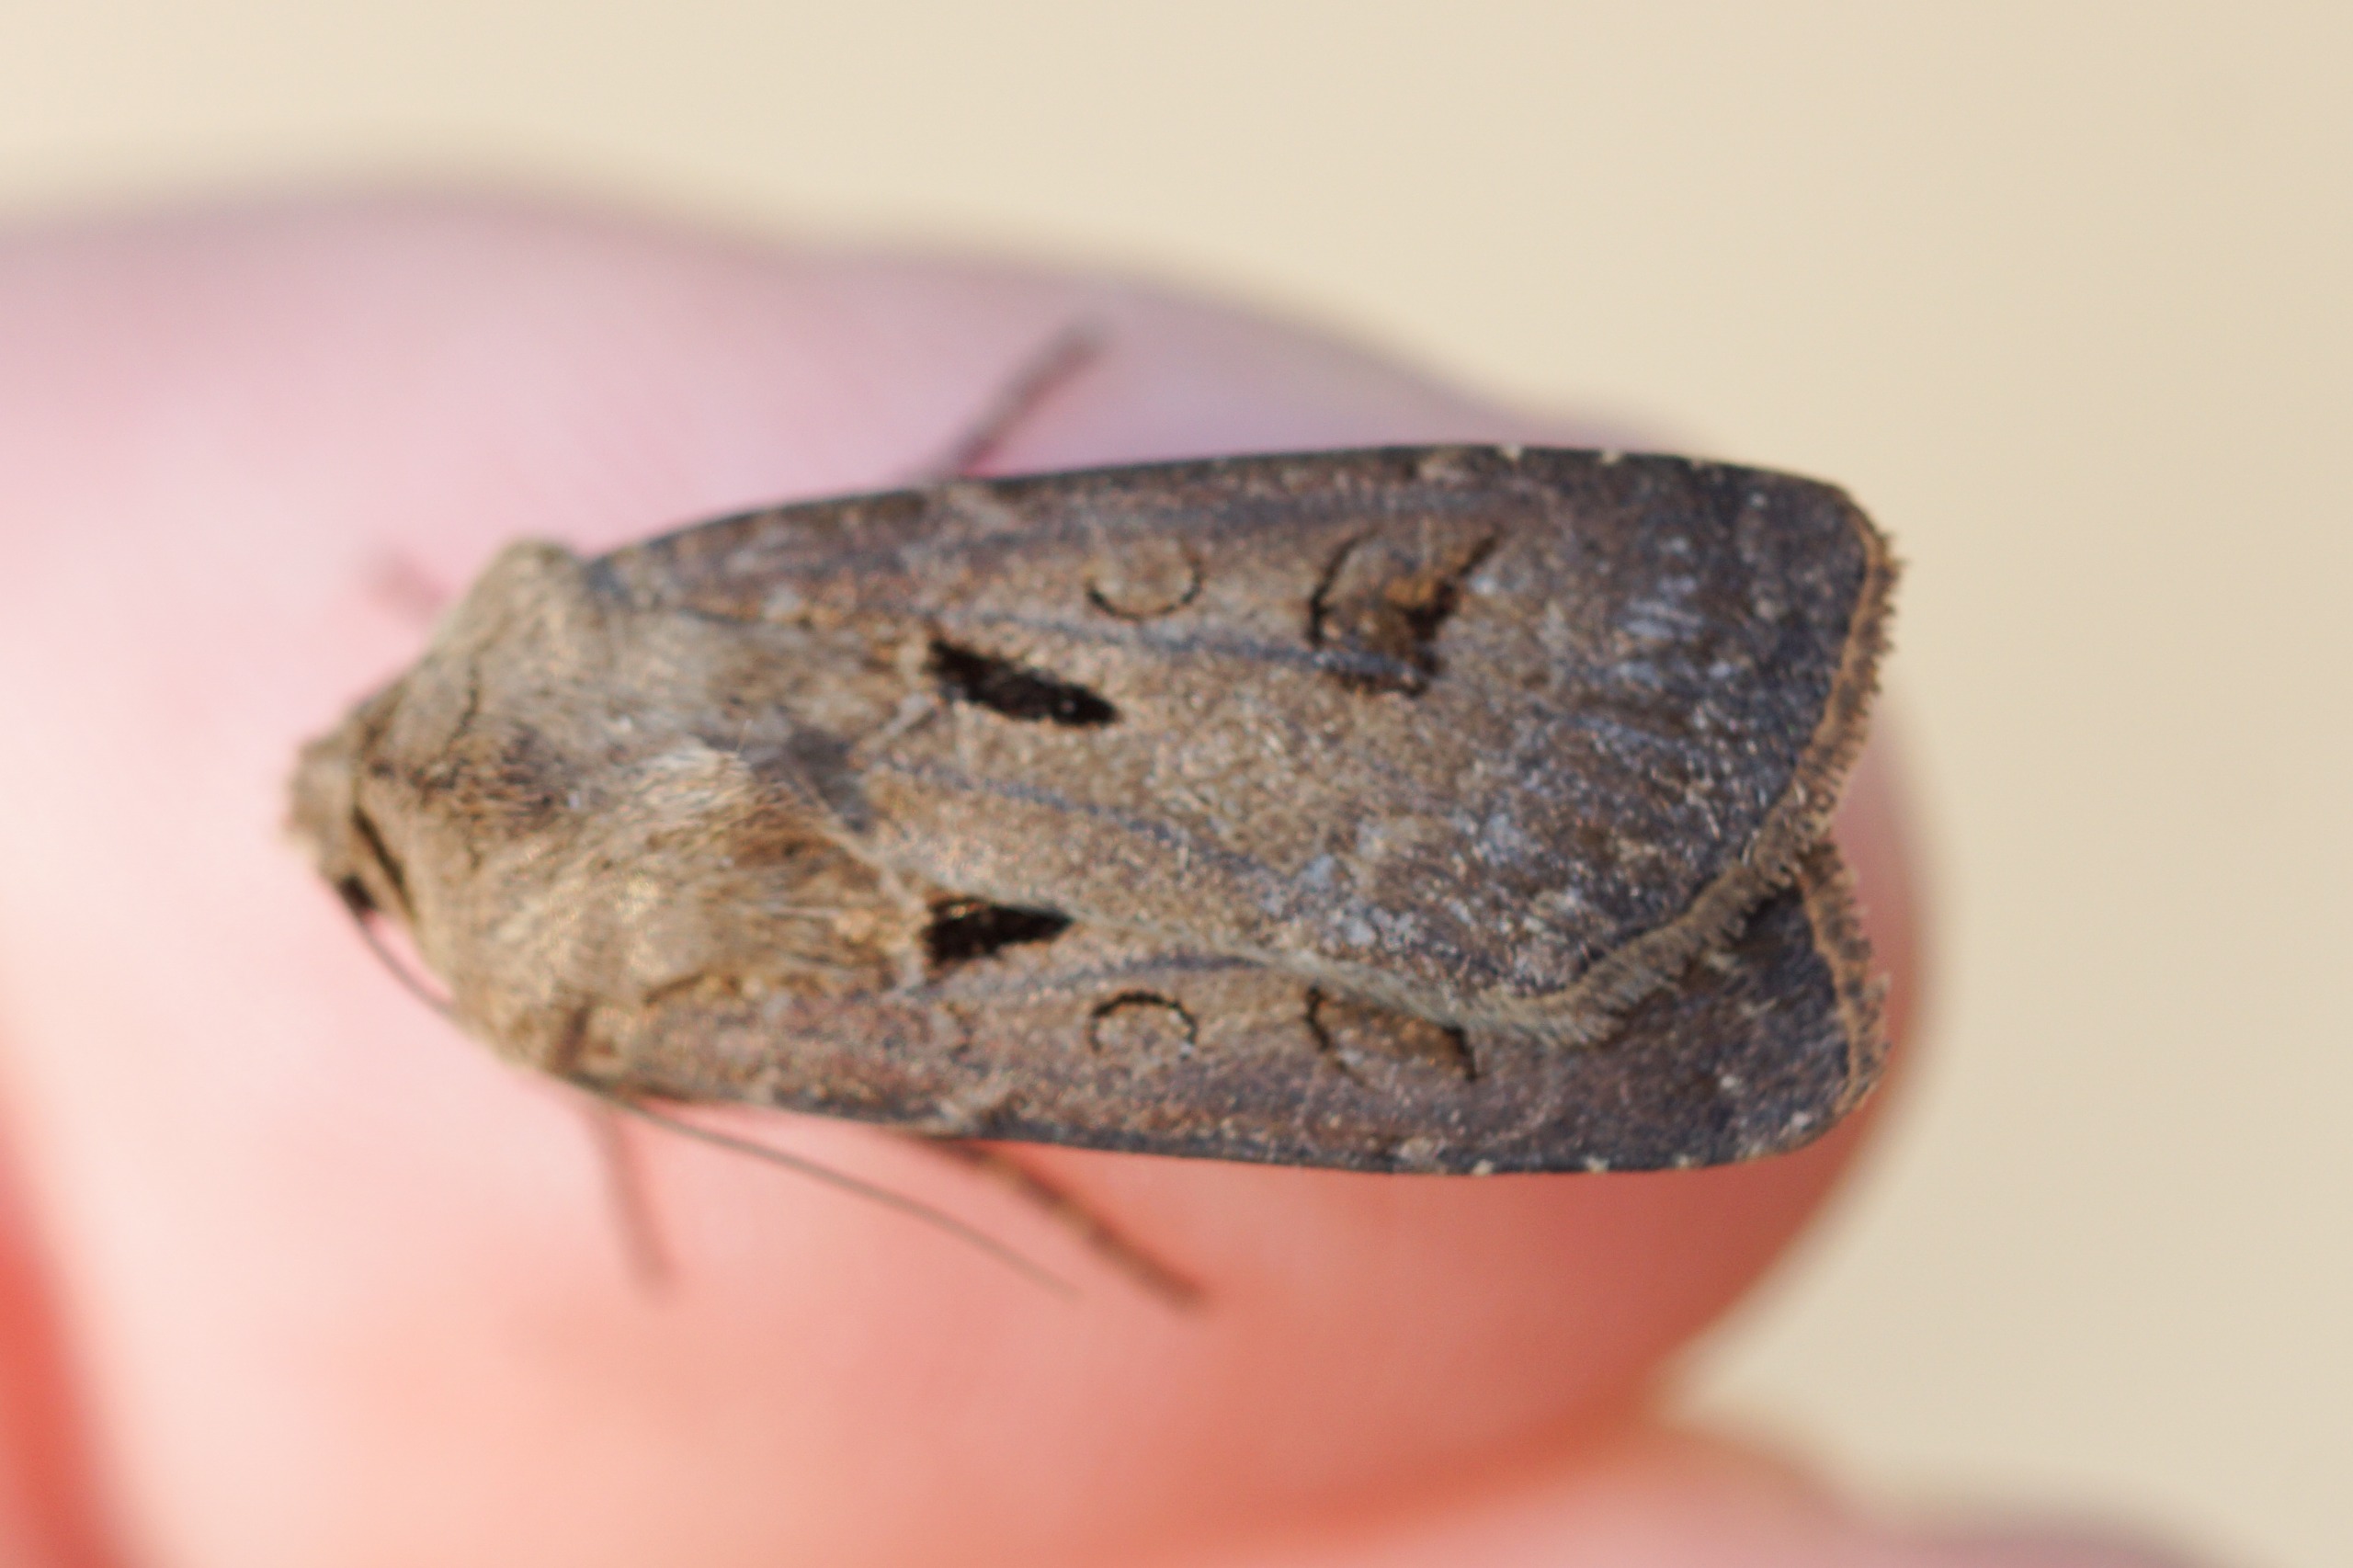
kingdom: Animalia
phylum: Arthropoda
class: Insecta
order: Lepidoptera
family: Noctuidae
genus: Agrotis
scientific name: Agrotis exclamationis
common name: Udråbstegnsugle
